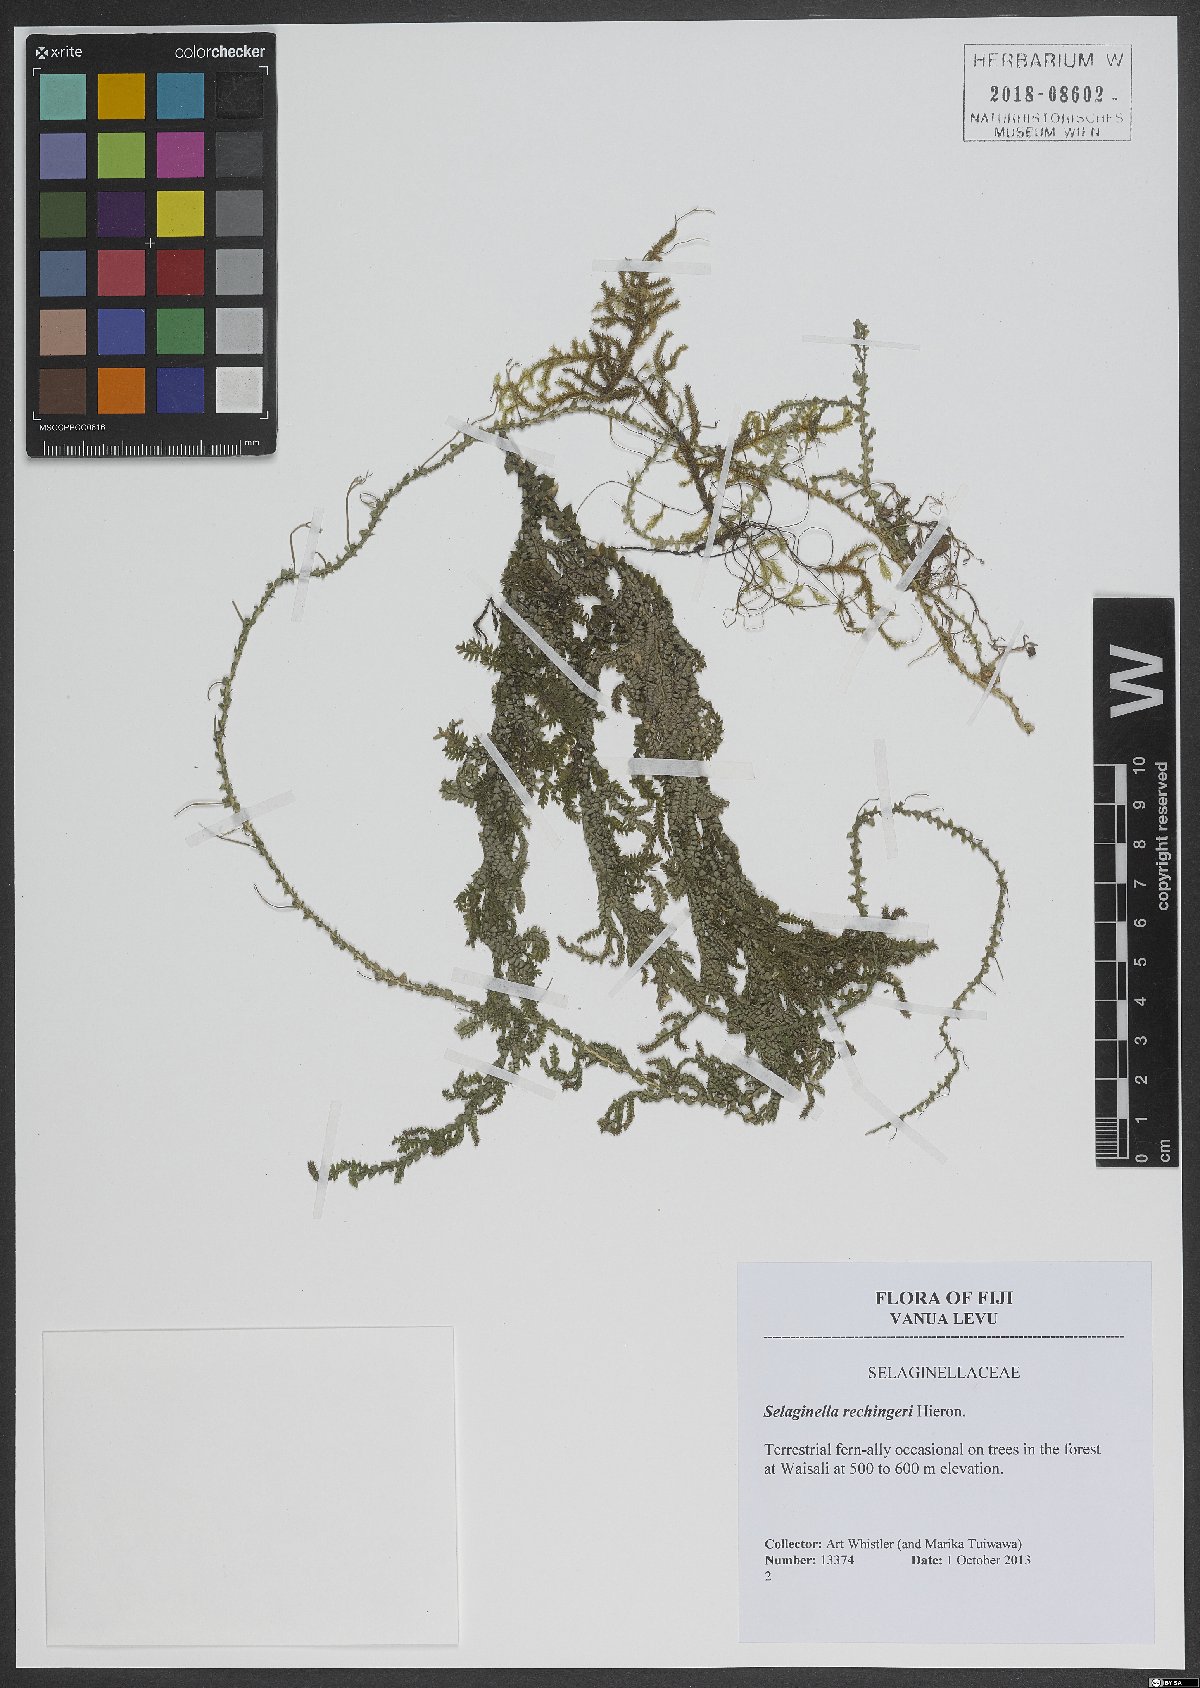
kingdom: Plantae
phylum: Tracheophyta
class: Lycopodiopsida
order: Selaginellales
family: Selaginellaceae
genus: Selaginella
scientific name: Selaginella rechingeri
